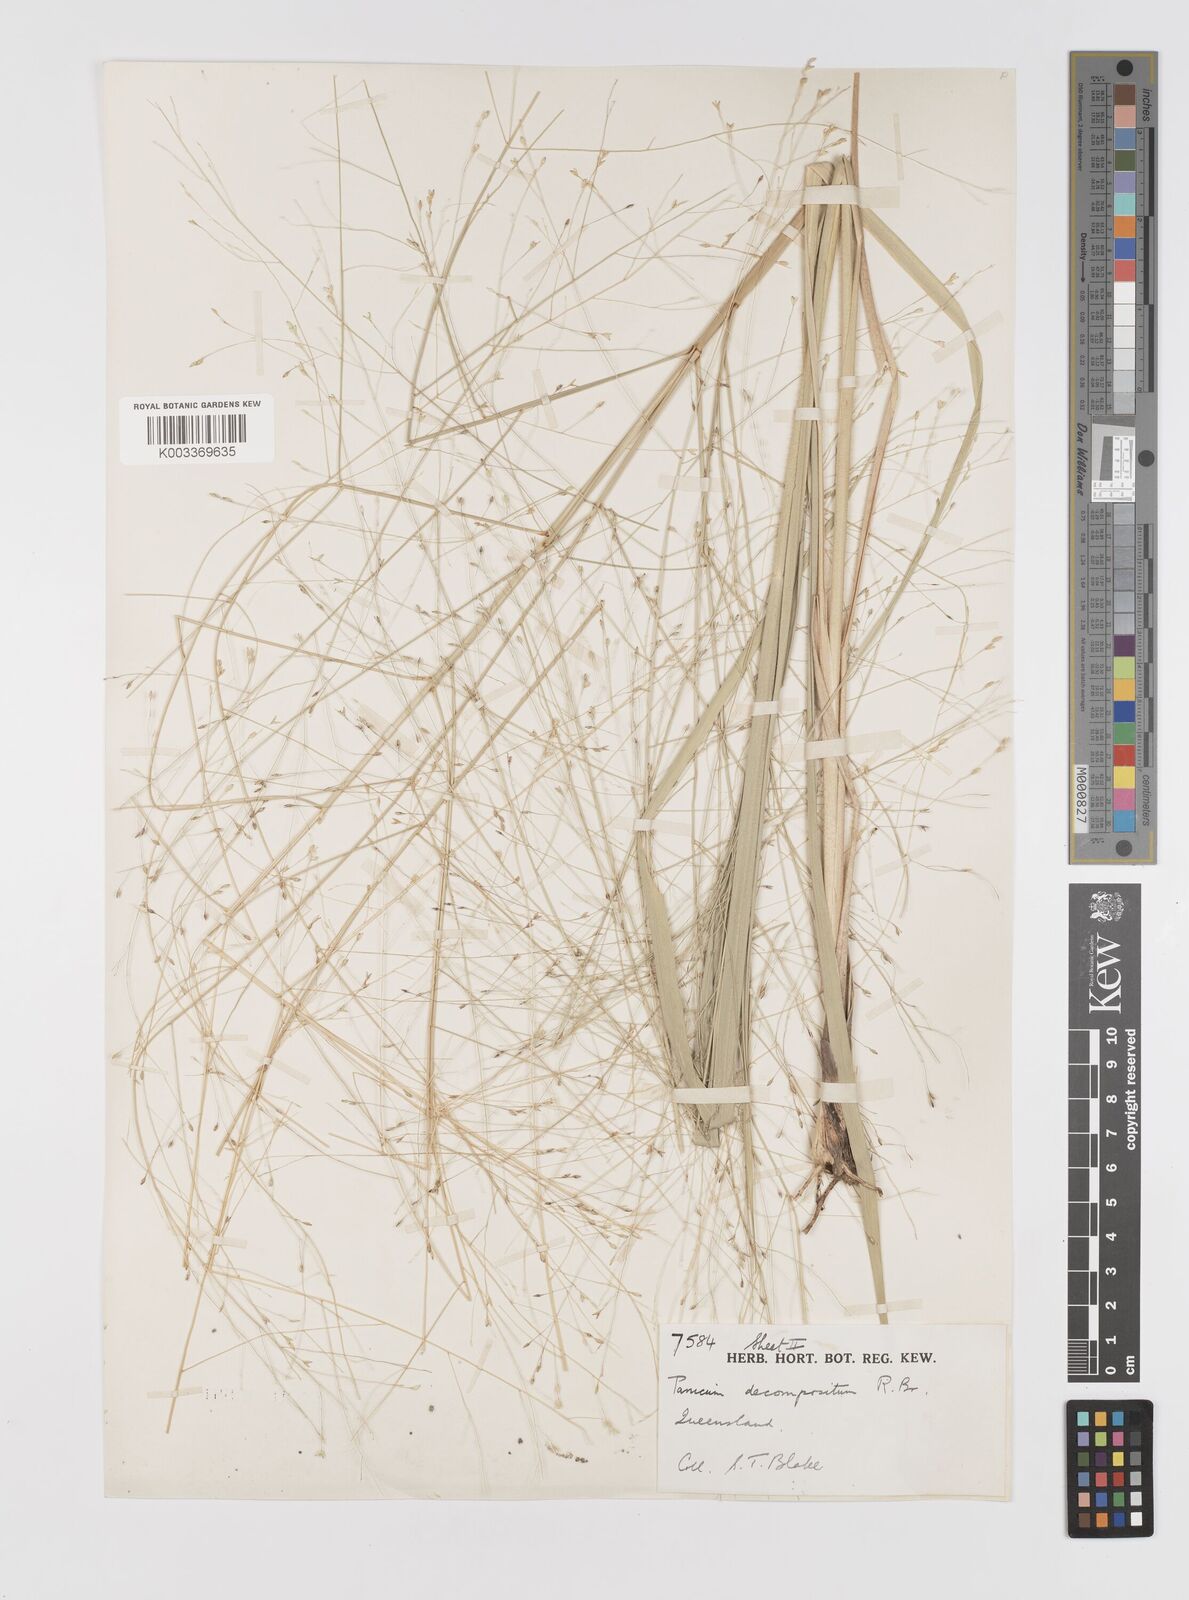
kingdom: Plantae
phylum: Tracheophyta
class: Liliopsida
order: Poales
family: Poaceae
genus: Panicum
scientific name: Panicum decompositum
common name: Australian millet
